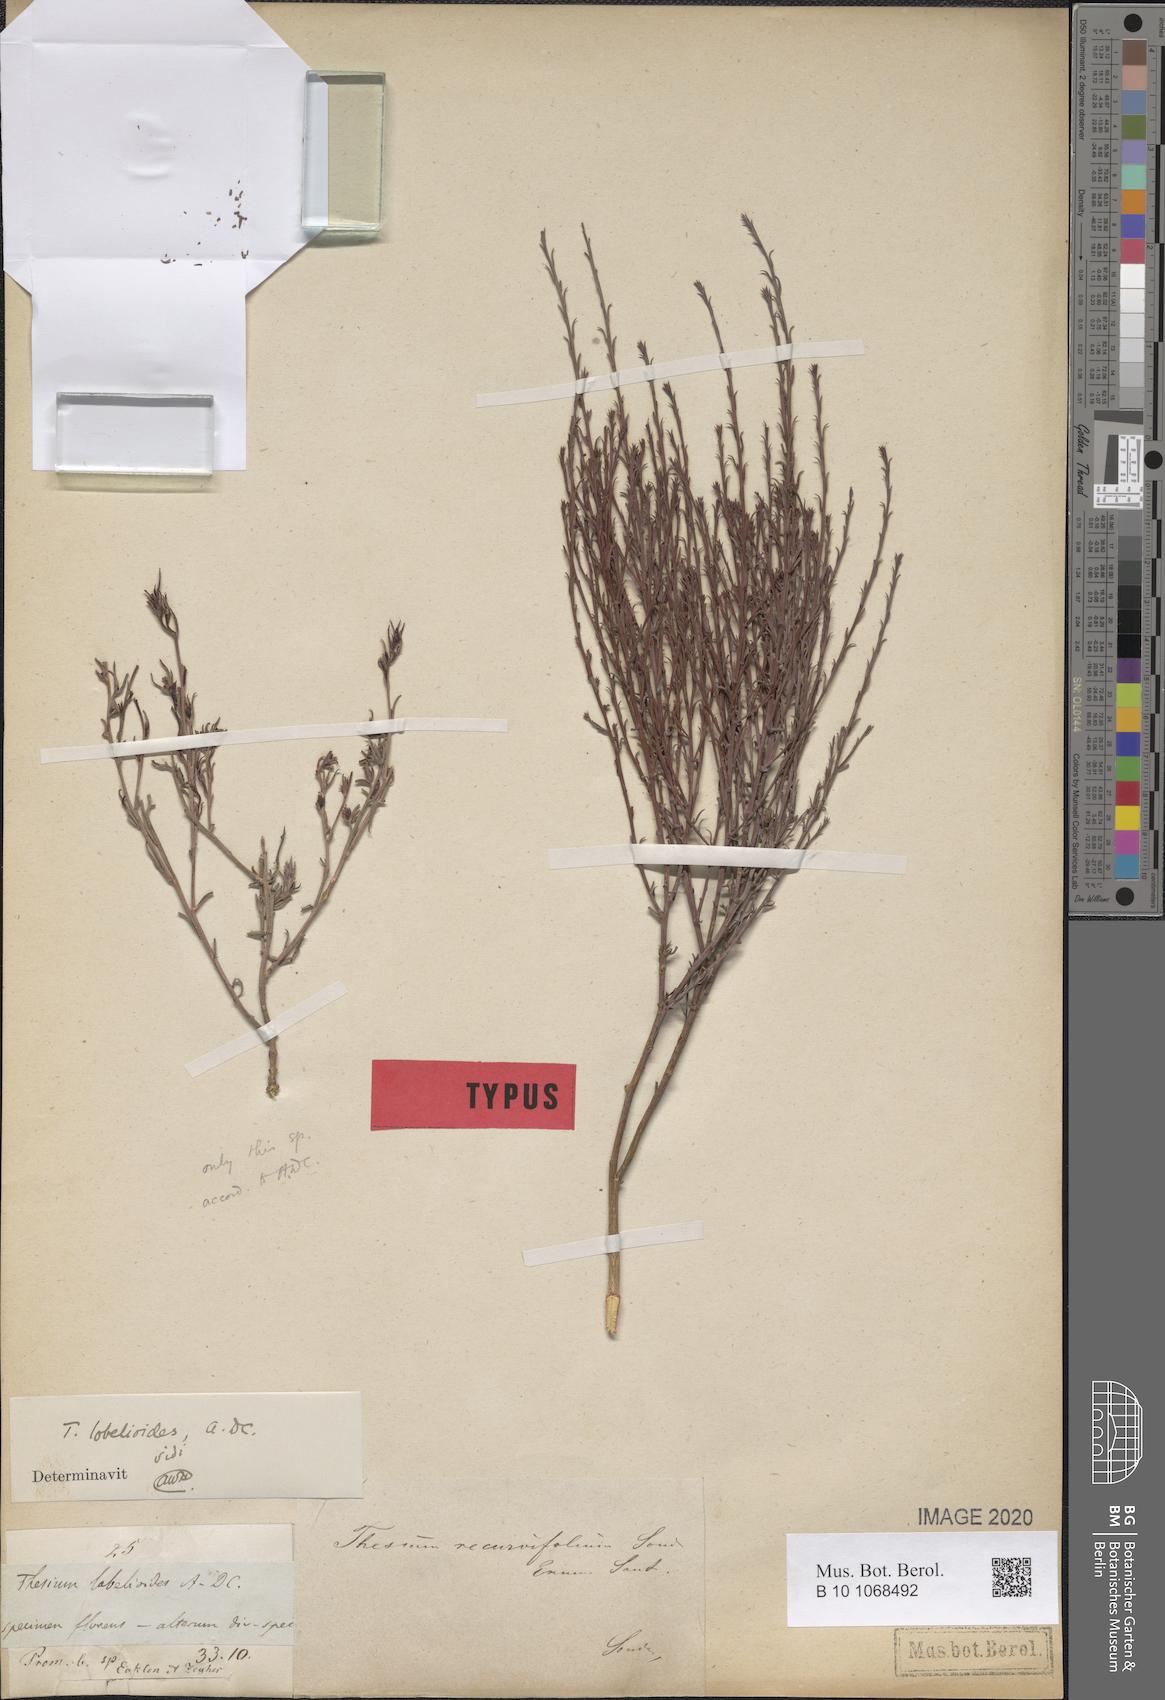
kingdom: Plantae
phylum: Tracheophyta
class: Magnoliopsida
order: Santalales
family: Thesiaceae
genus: Thesium
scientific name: Thesium lobelioides
